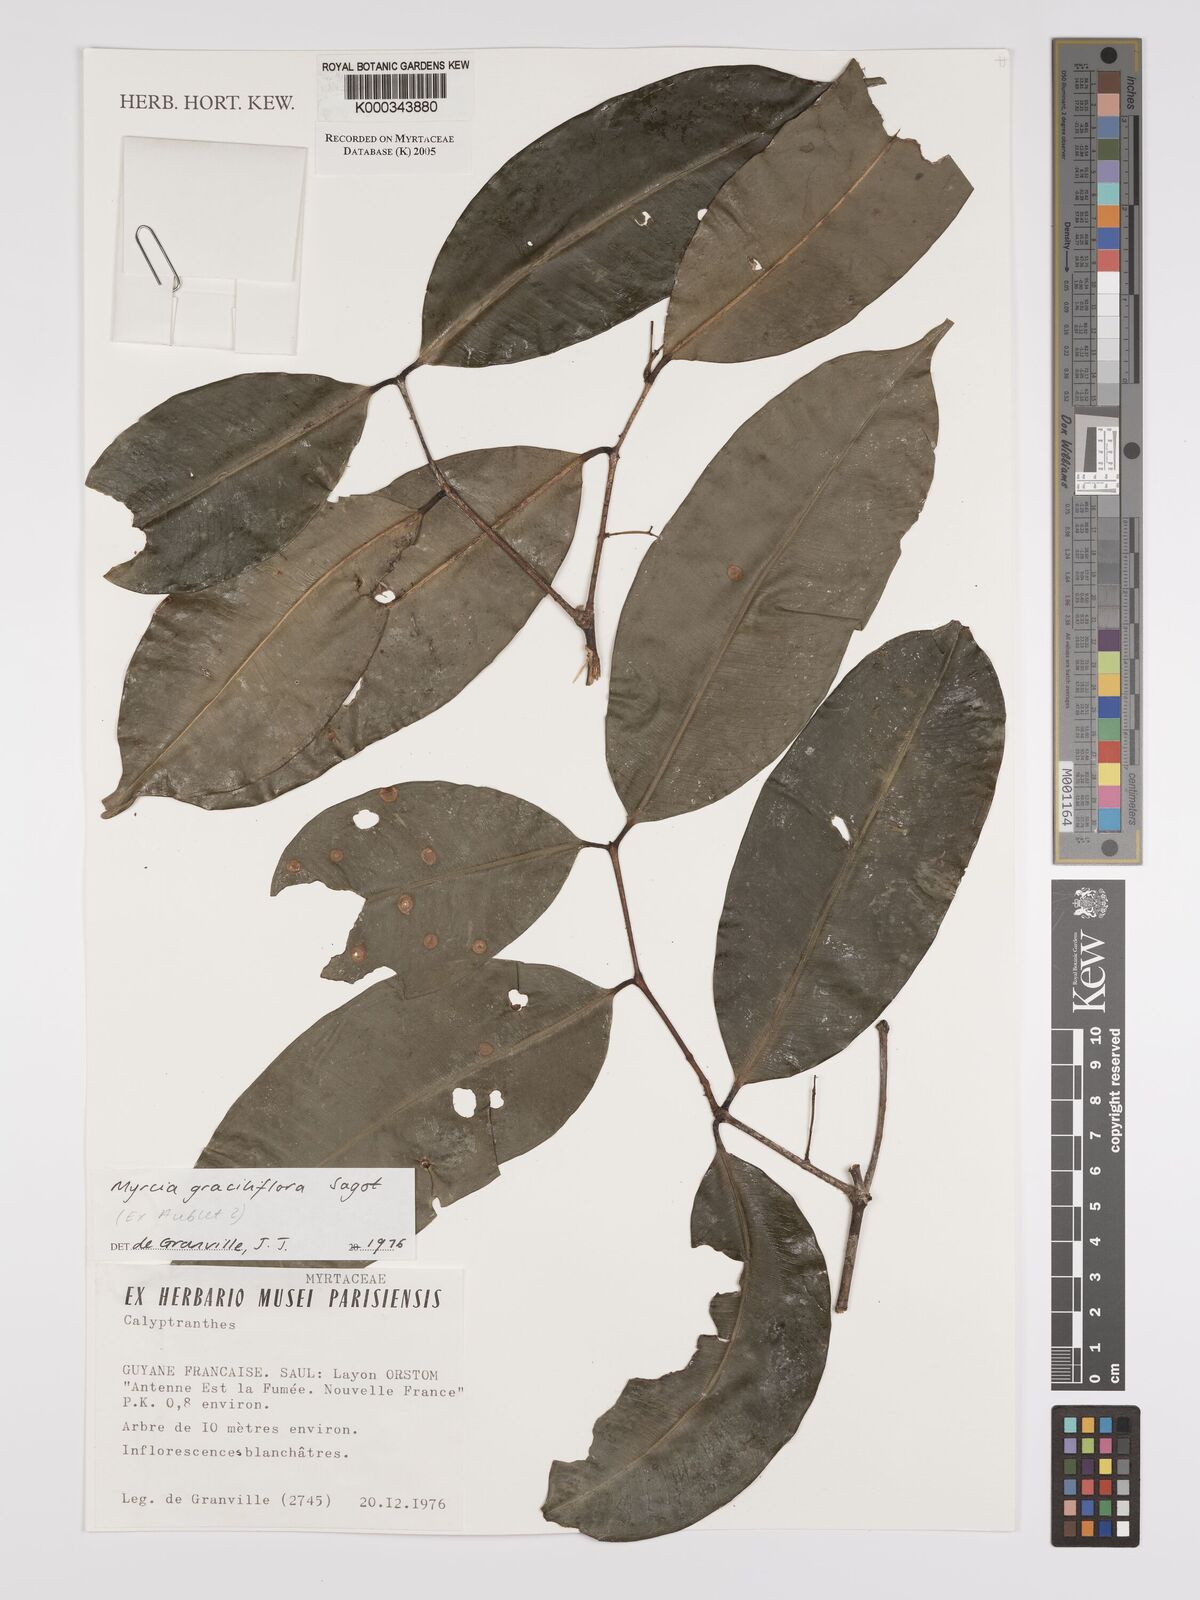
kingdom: Plantae
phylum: Tracheophyta
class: Magnoliopsida
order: Myrtales
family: Myrtaceae
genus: Myrcia
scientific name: Myrcia graciliflora
